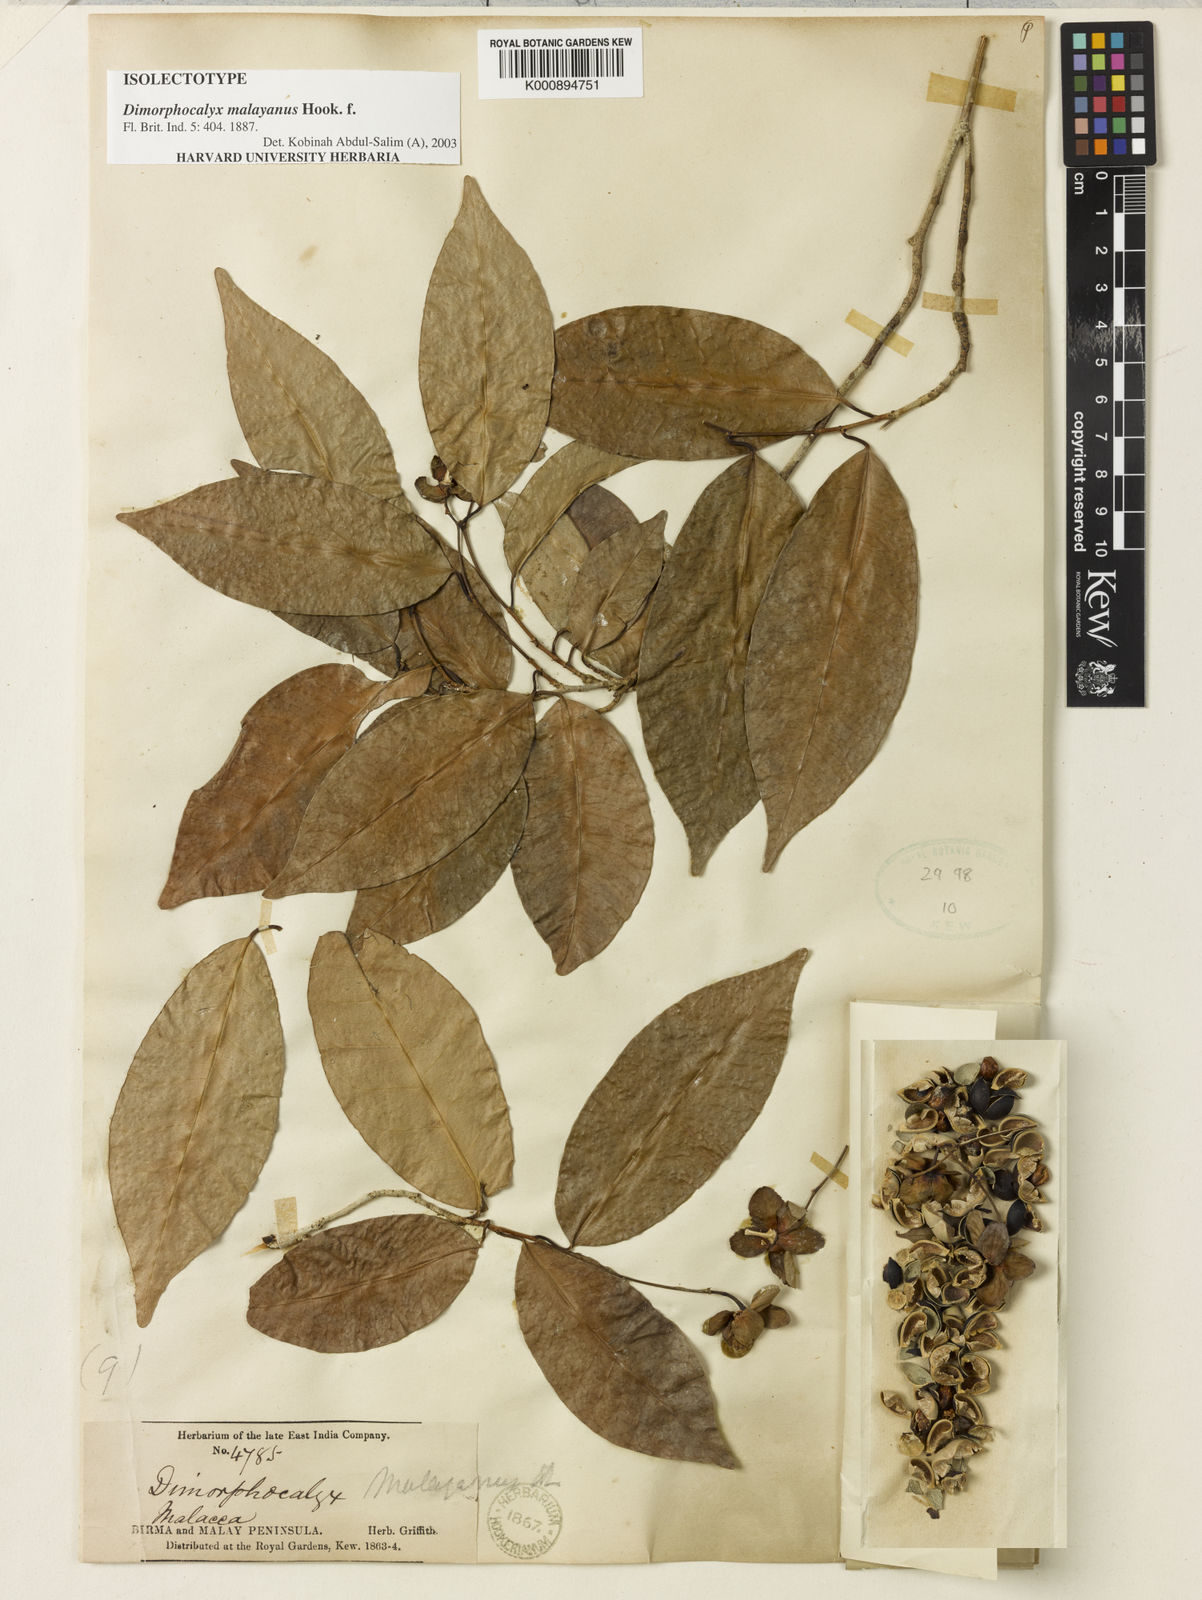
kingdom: Plantae
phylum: Tracheophyta
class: Magnoliopsida
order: Malpighiales
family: Euphorbiaceae
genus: Tritaxis
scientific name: Tritaxis malayana
